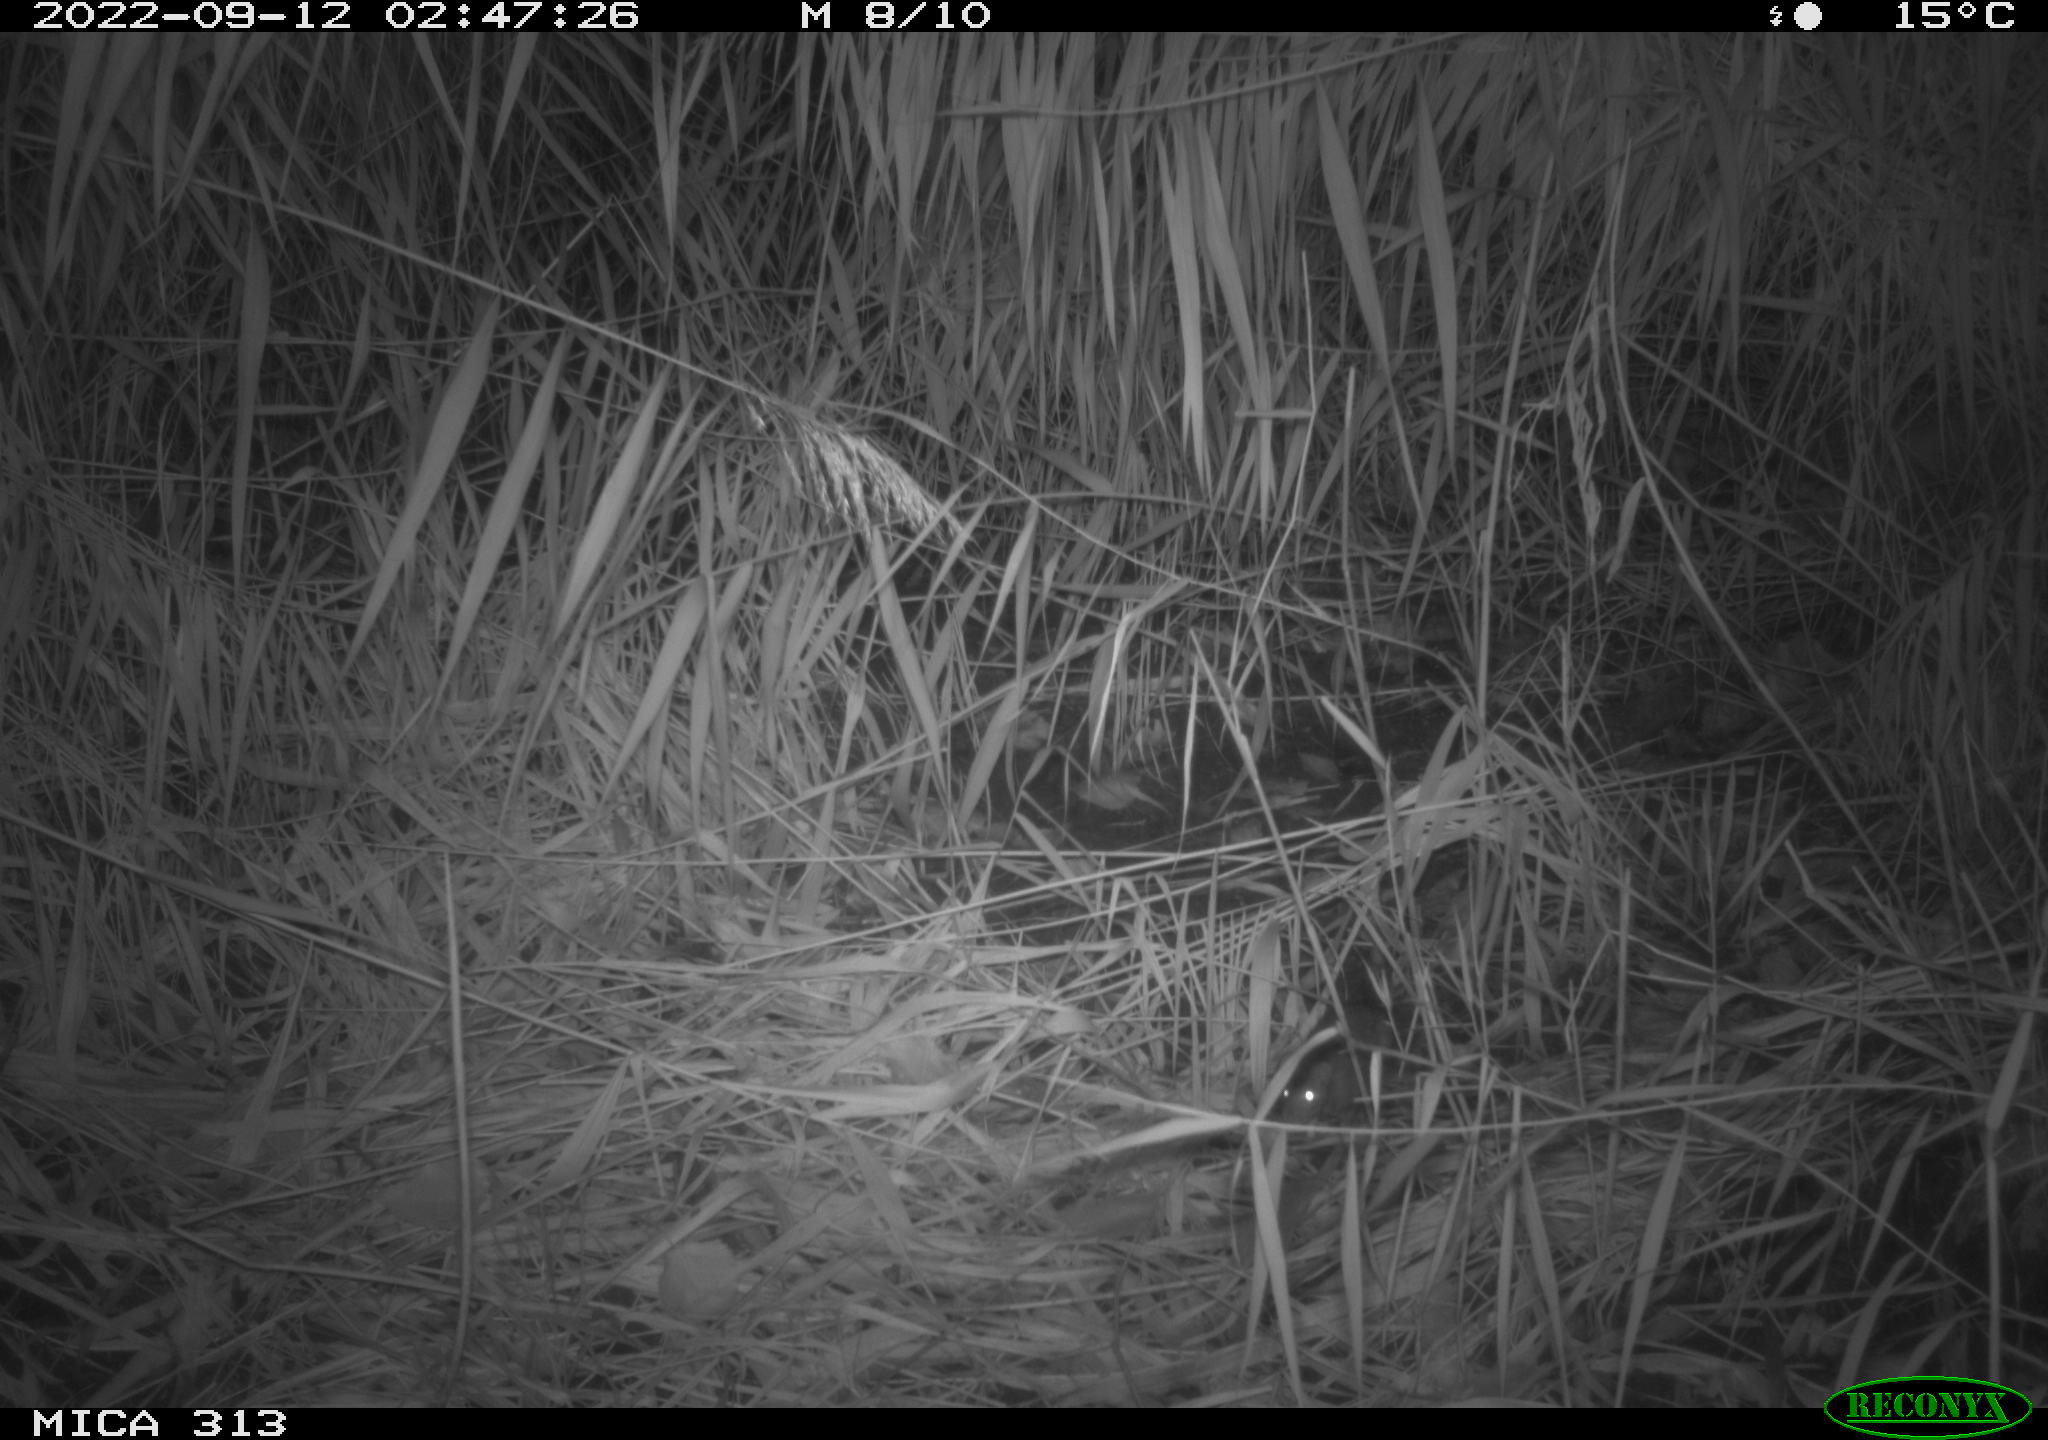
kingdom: Animalia
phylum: Chordata
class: Mammalia
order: Rodentia
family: Muridae
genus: Rattus
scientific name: Rattus norvegicus
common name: Brown rat
